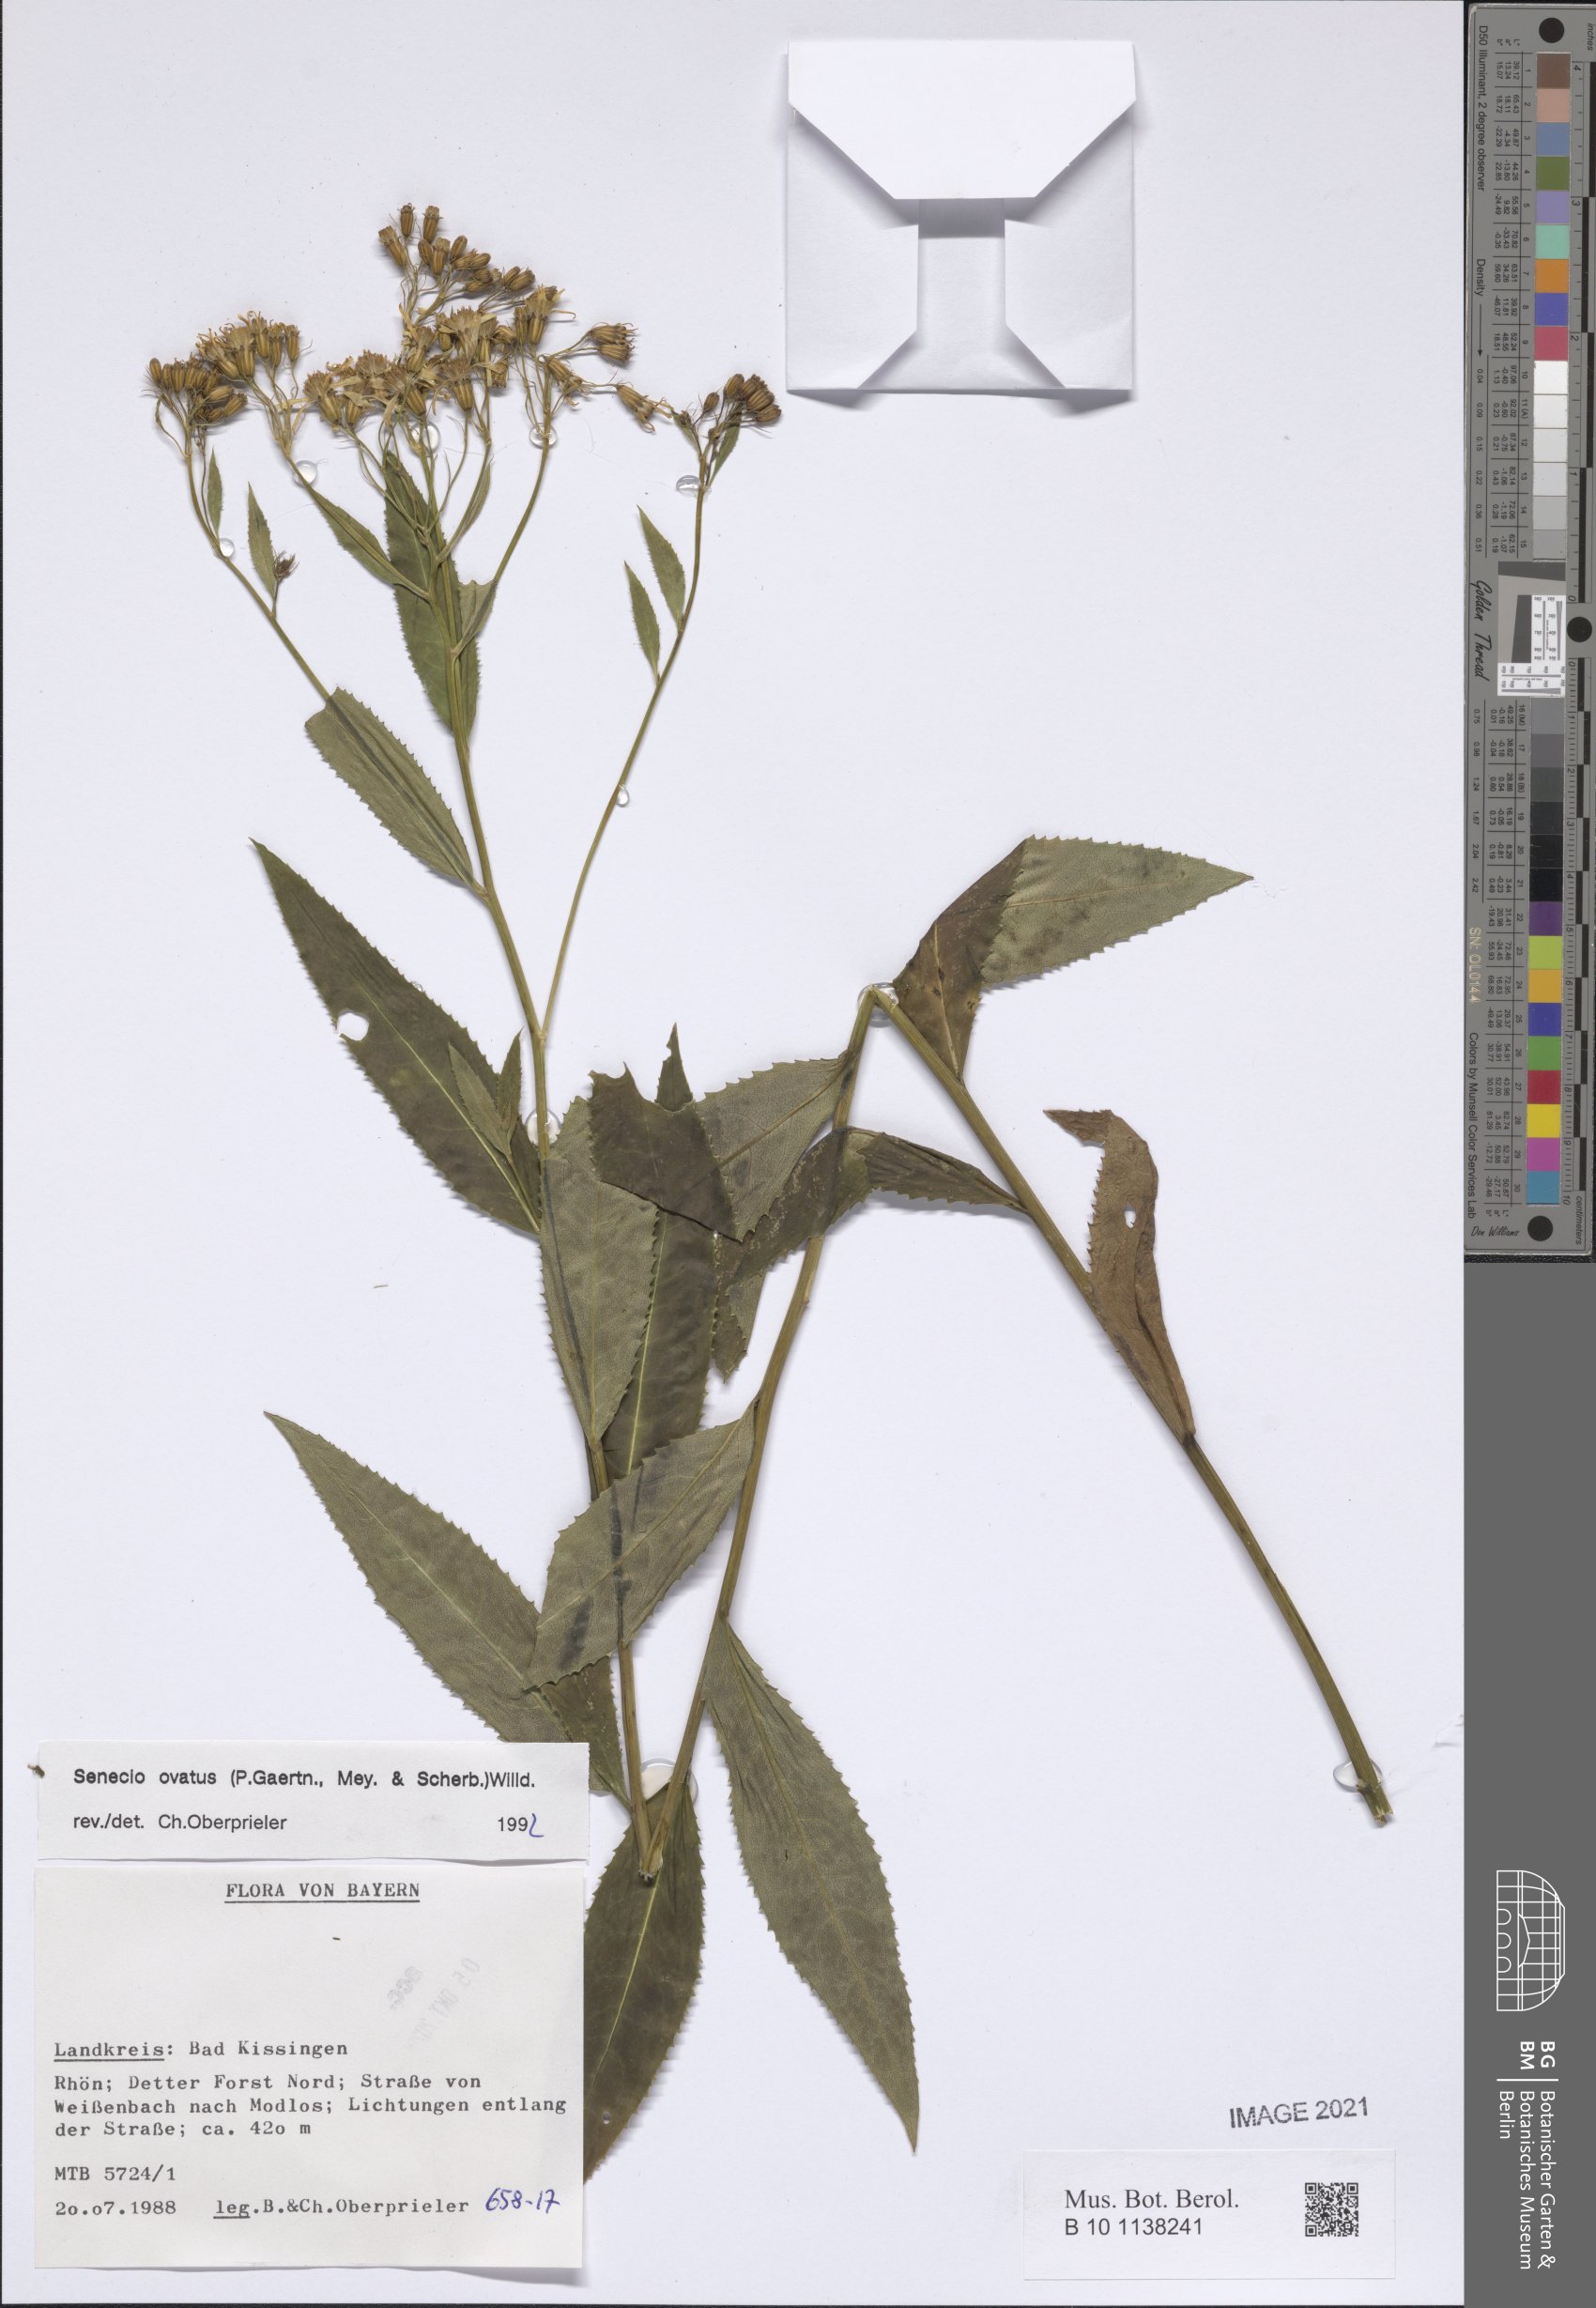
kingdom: Plantae
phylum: Tracheophyta
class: Magnoliopsida
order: Asterales
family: Asteraceae
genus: Senecio
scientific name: Senecio ovatus
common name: Wood ragwort
